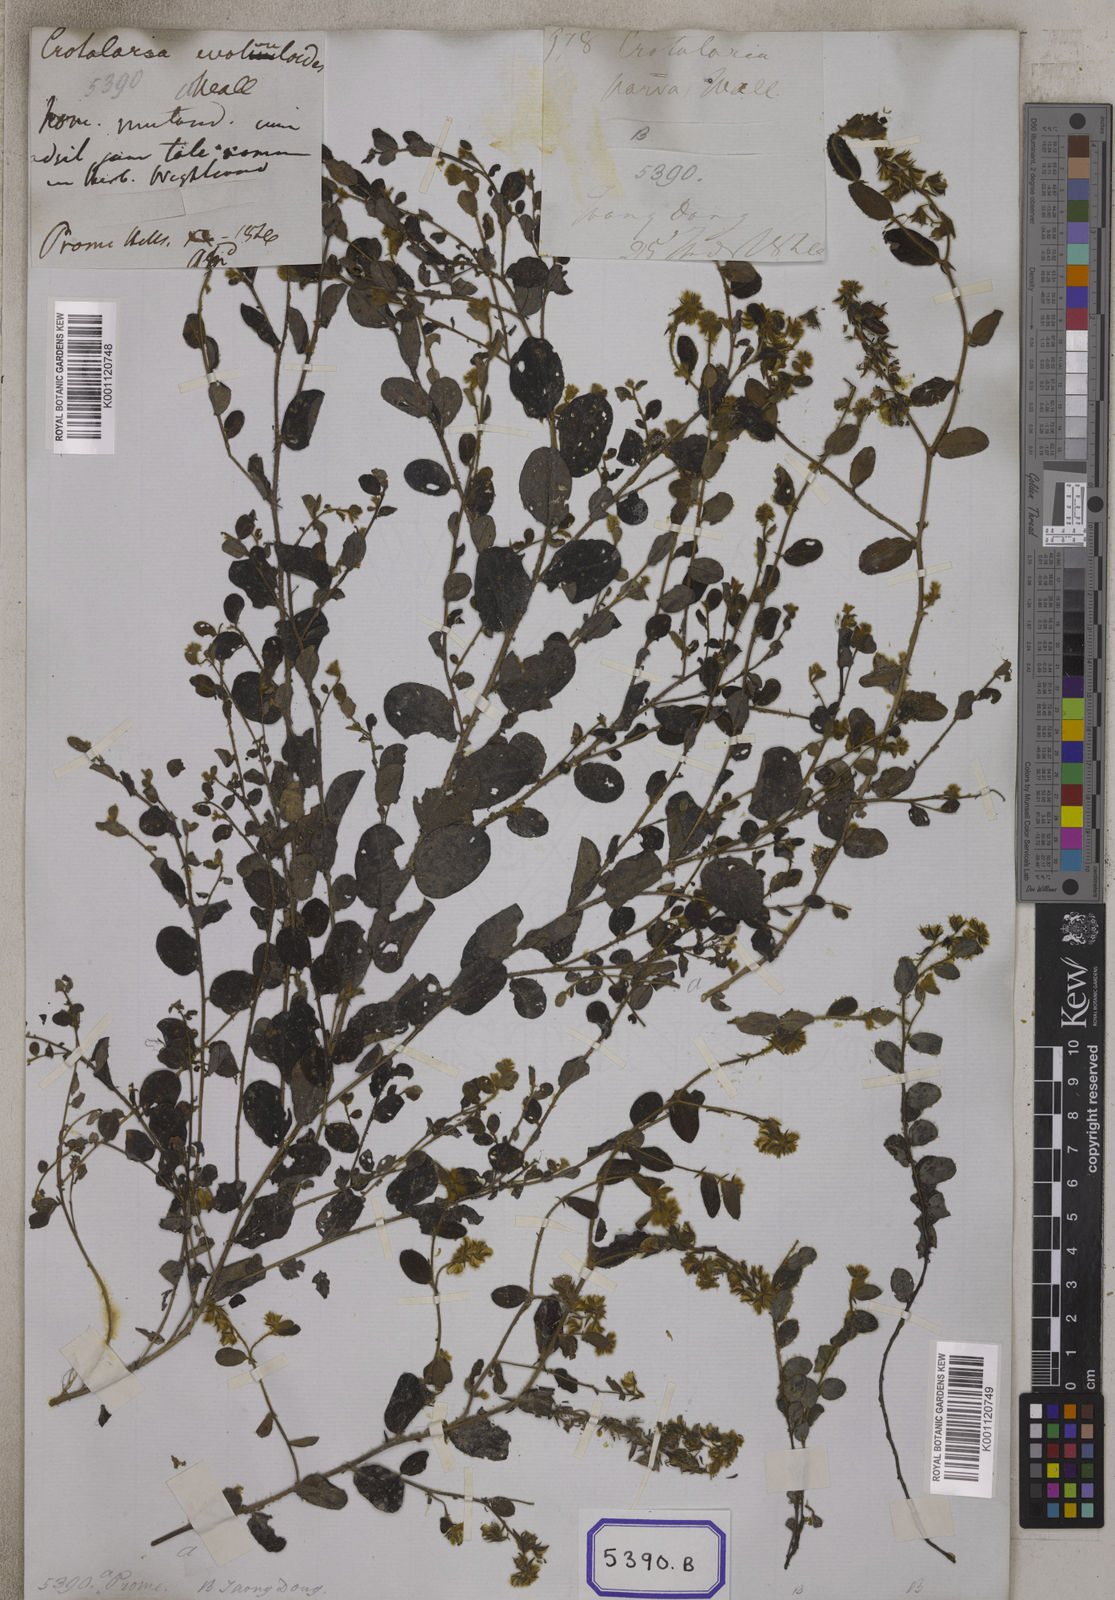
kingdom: Plantae
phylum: Tracheophyta
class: Magnoliopsida
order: Fabales
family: Fabaceae
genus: Crotalaria
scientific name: Crotalaria acicularis
